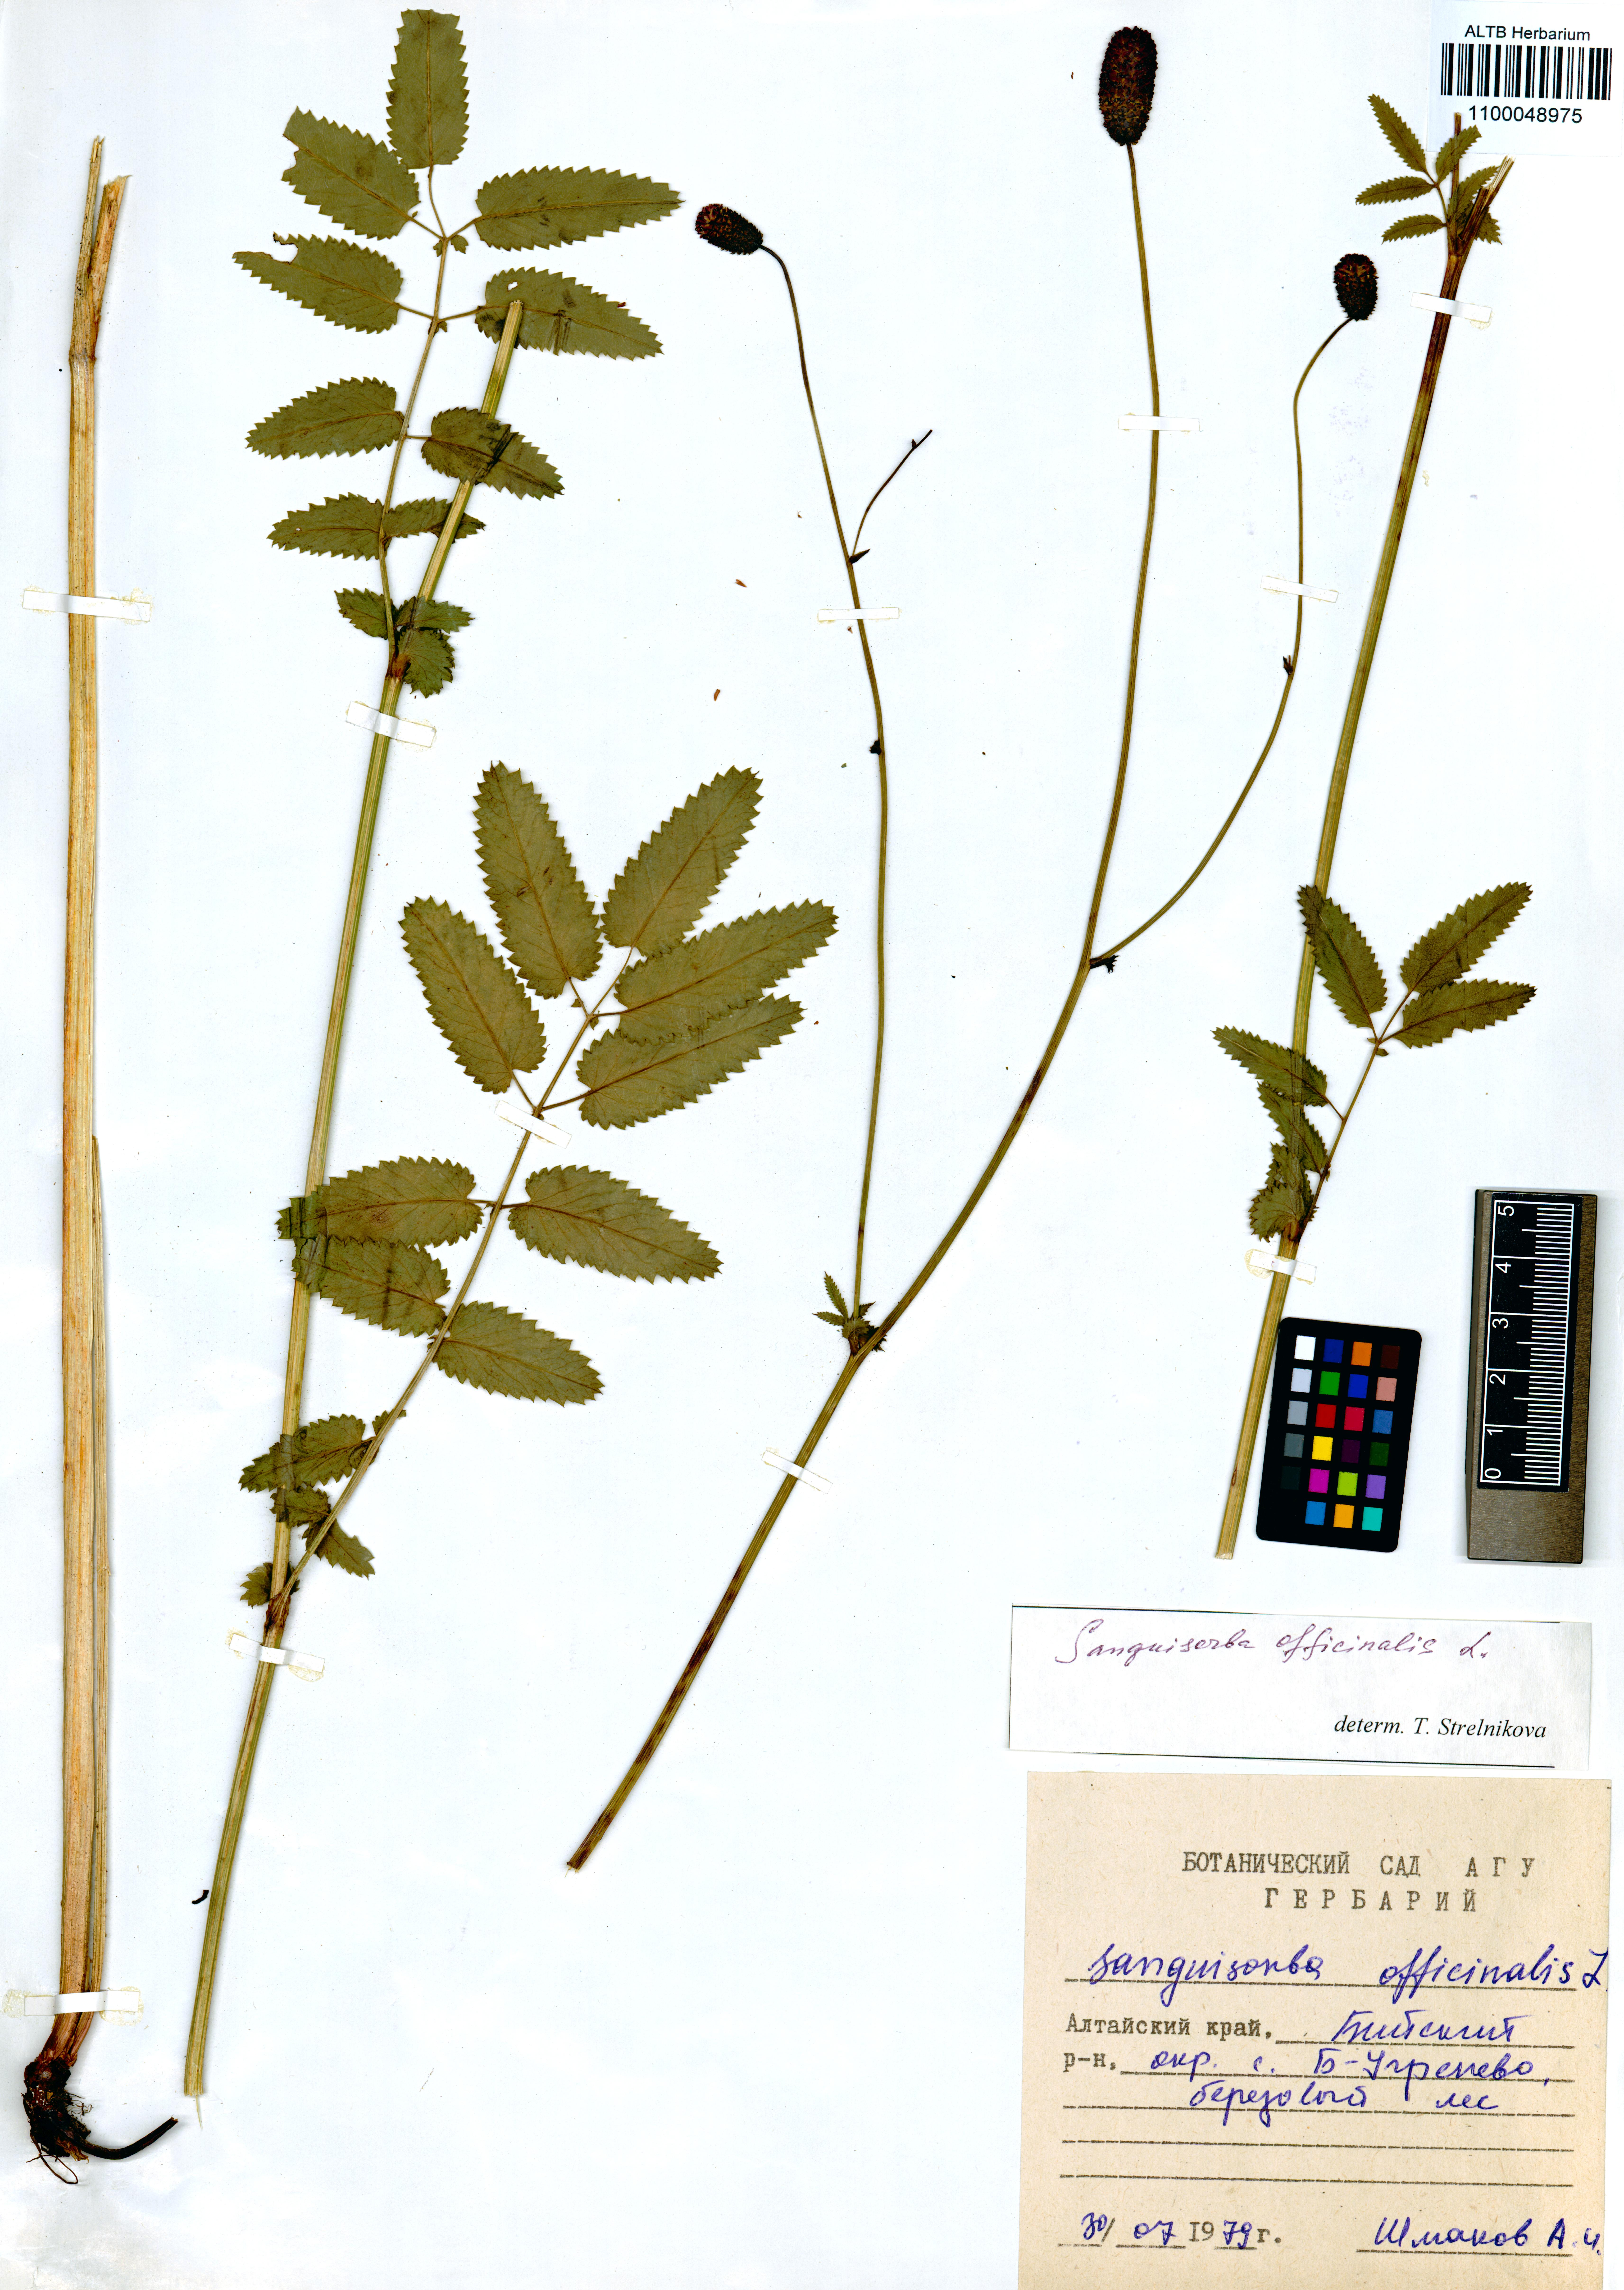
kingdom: Plantae
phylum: Tracheophyta
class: Magnoliopsida
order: Rosales
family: Rosaceae
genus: Sanguisorba
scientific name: Sanguisorba officinalis
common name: Great burnet
